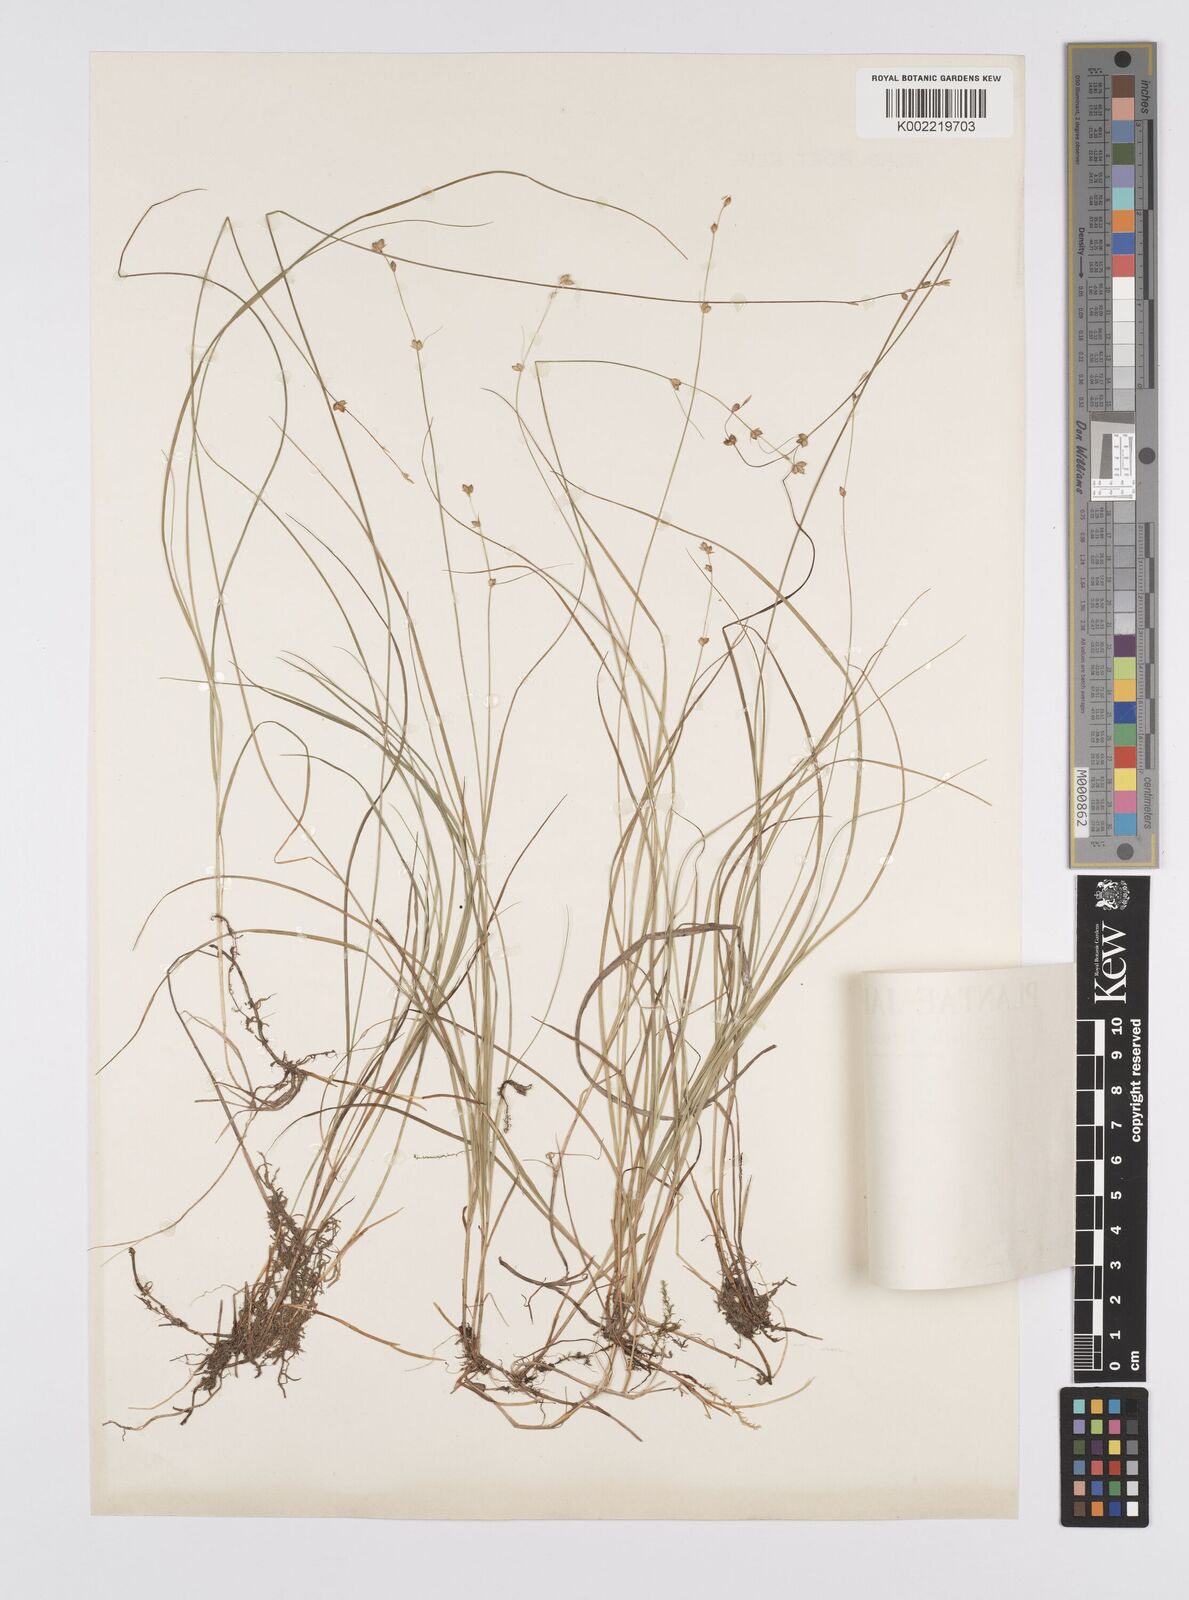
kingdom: Plantae
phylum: Tracheophyta
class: Liliopsida
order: Poales
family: Cyperaceae
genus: Carex
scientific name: Carex disperma
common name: Short-leaved sedge
